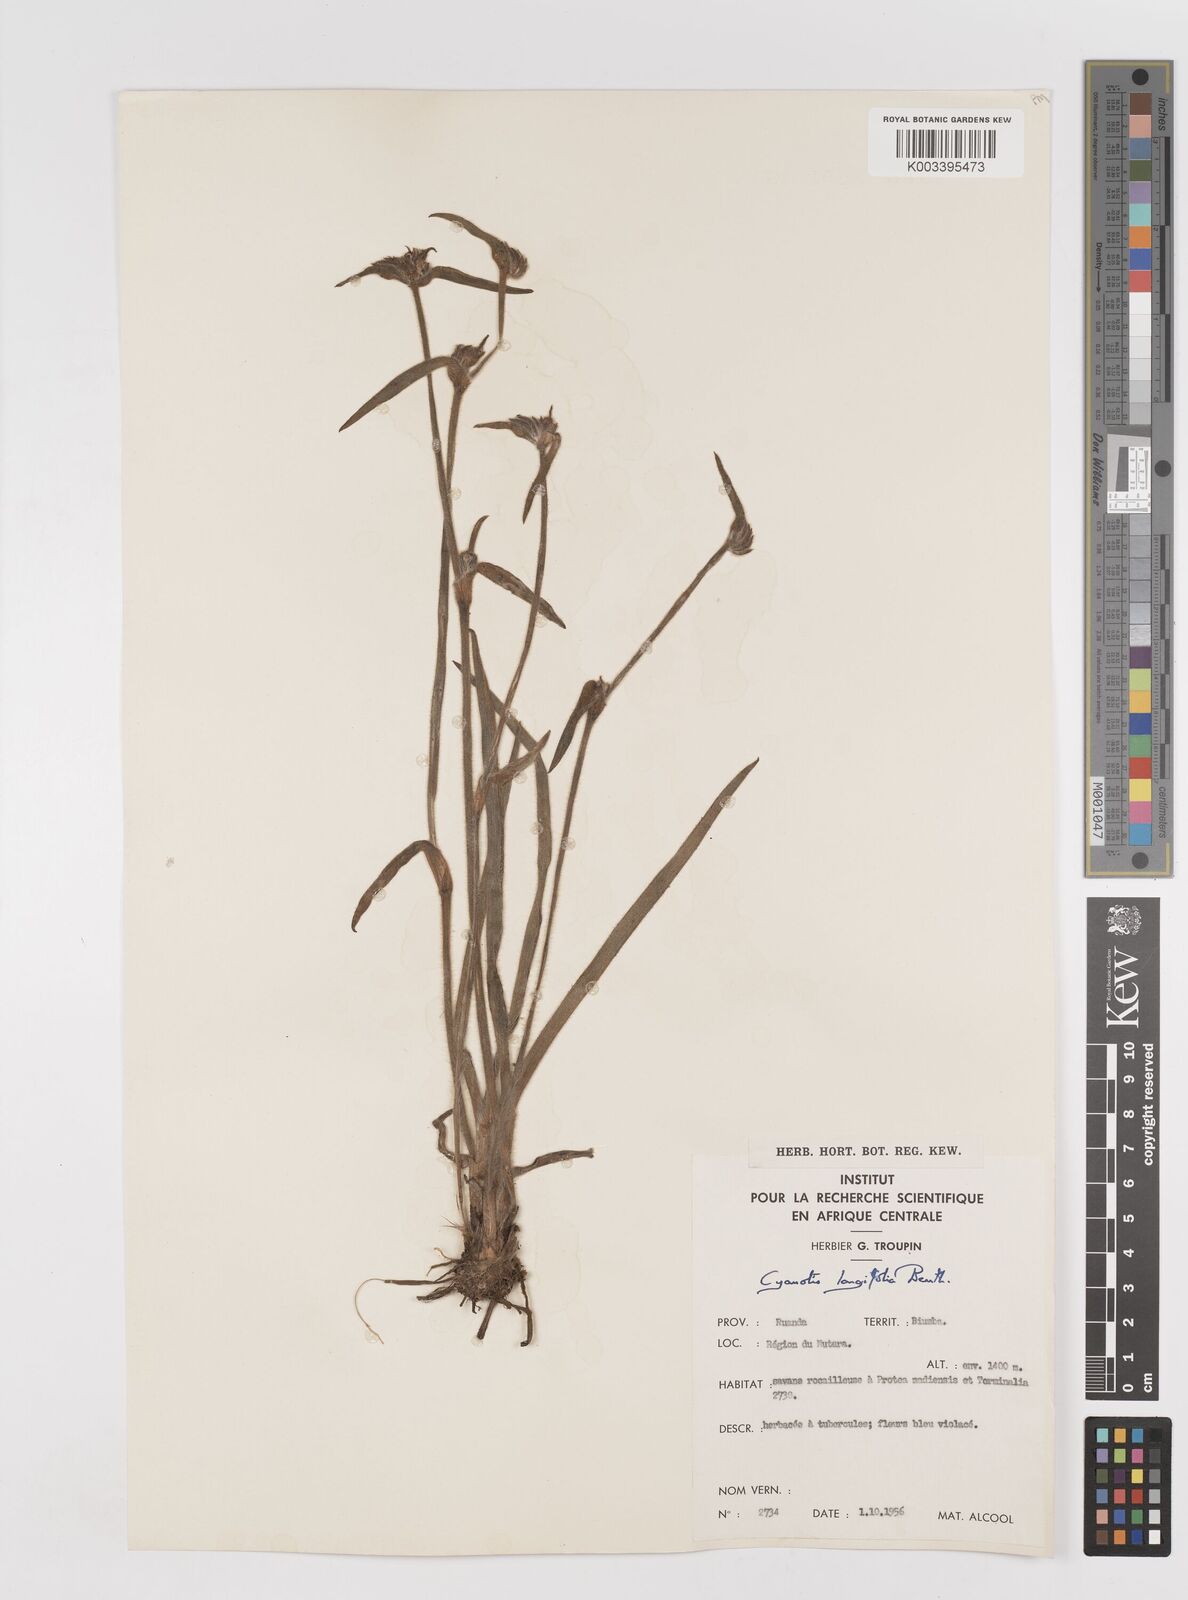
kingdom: Plantae
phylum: Tracheophyta
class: Liliopsida
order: Commelinales
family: Commelinaceae
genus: Cyanotis
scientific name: Cyanotis longifolia
